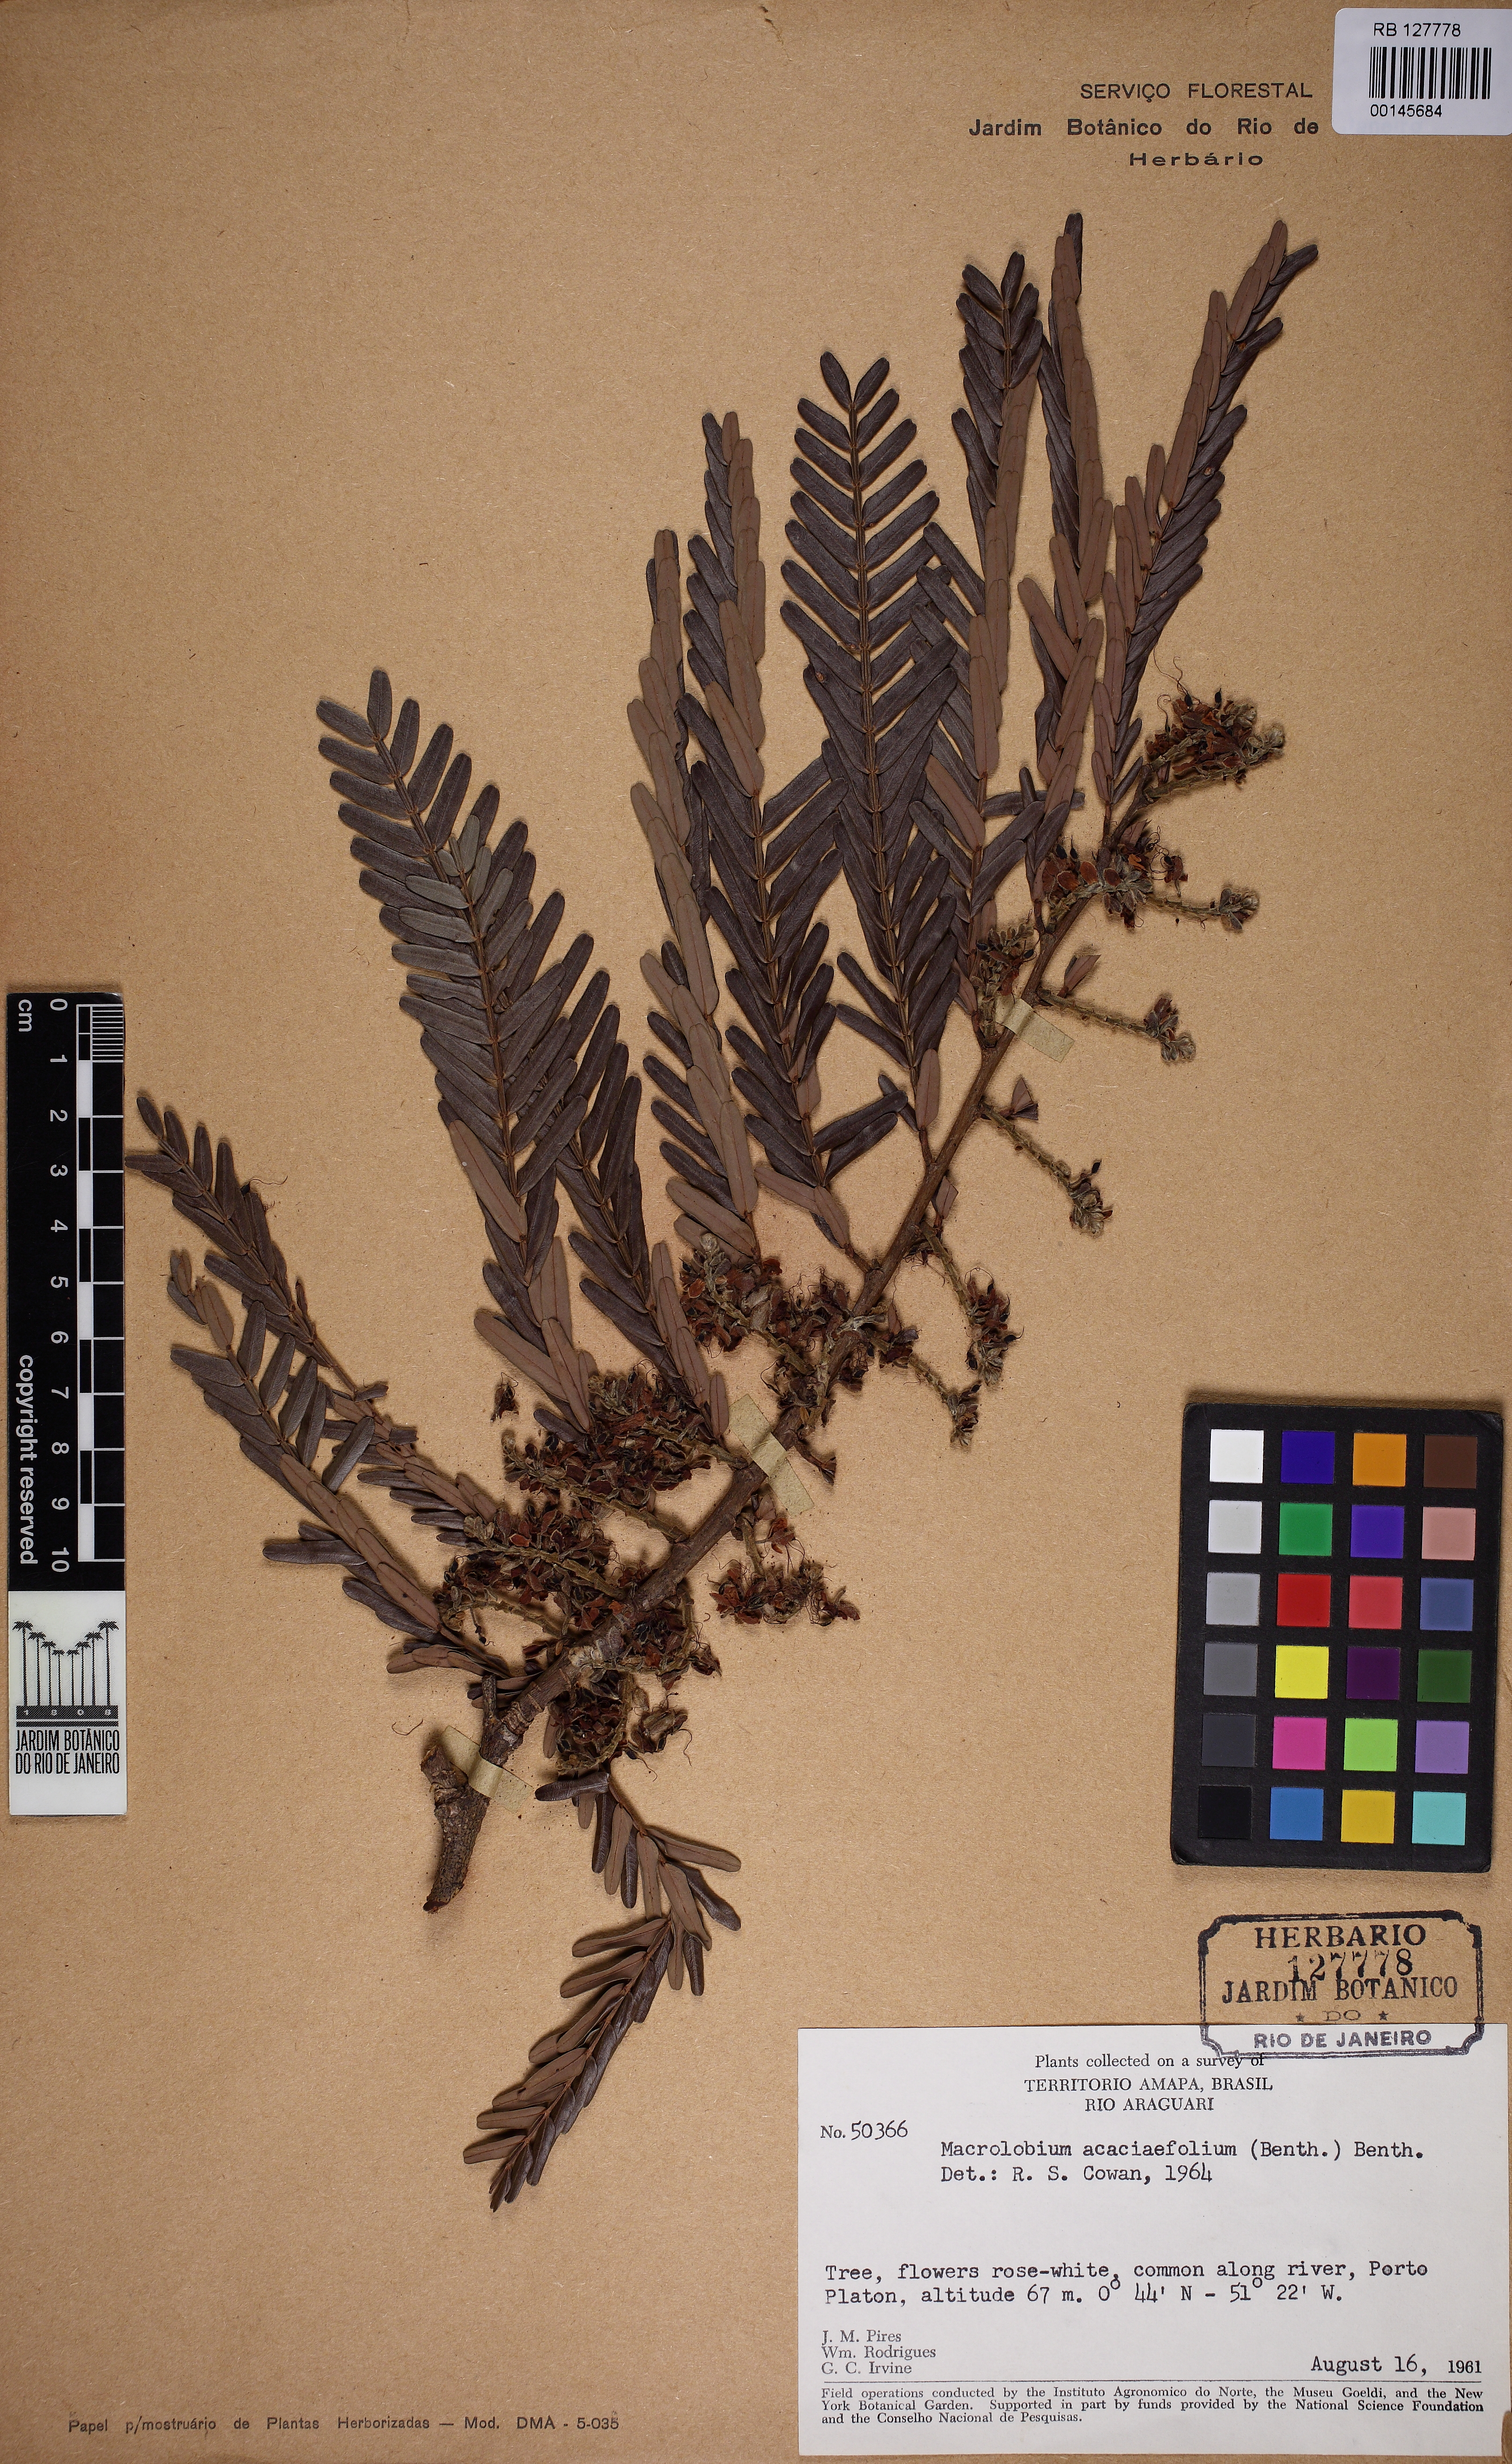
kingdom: Plantae
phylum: Tracheophyta
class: Magnoliopsida
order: Fabales
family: Fabaceae
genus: Macrolobium
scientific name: Macrolobium acaciifolium
